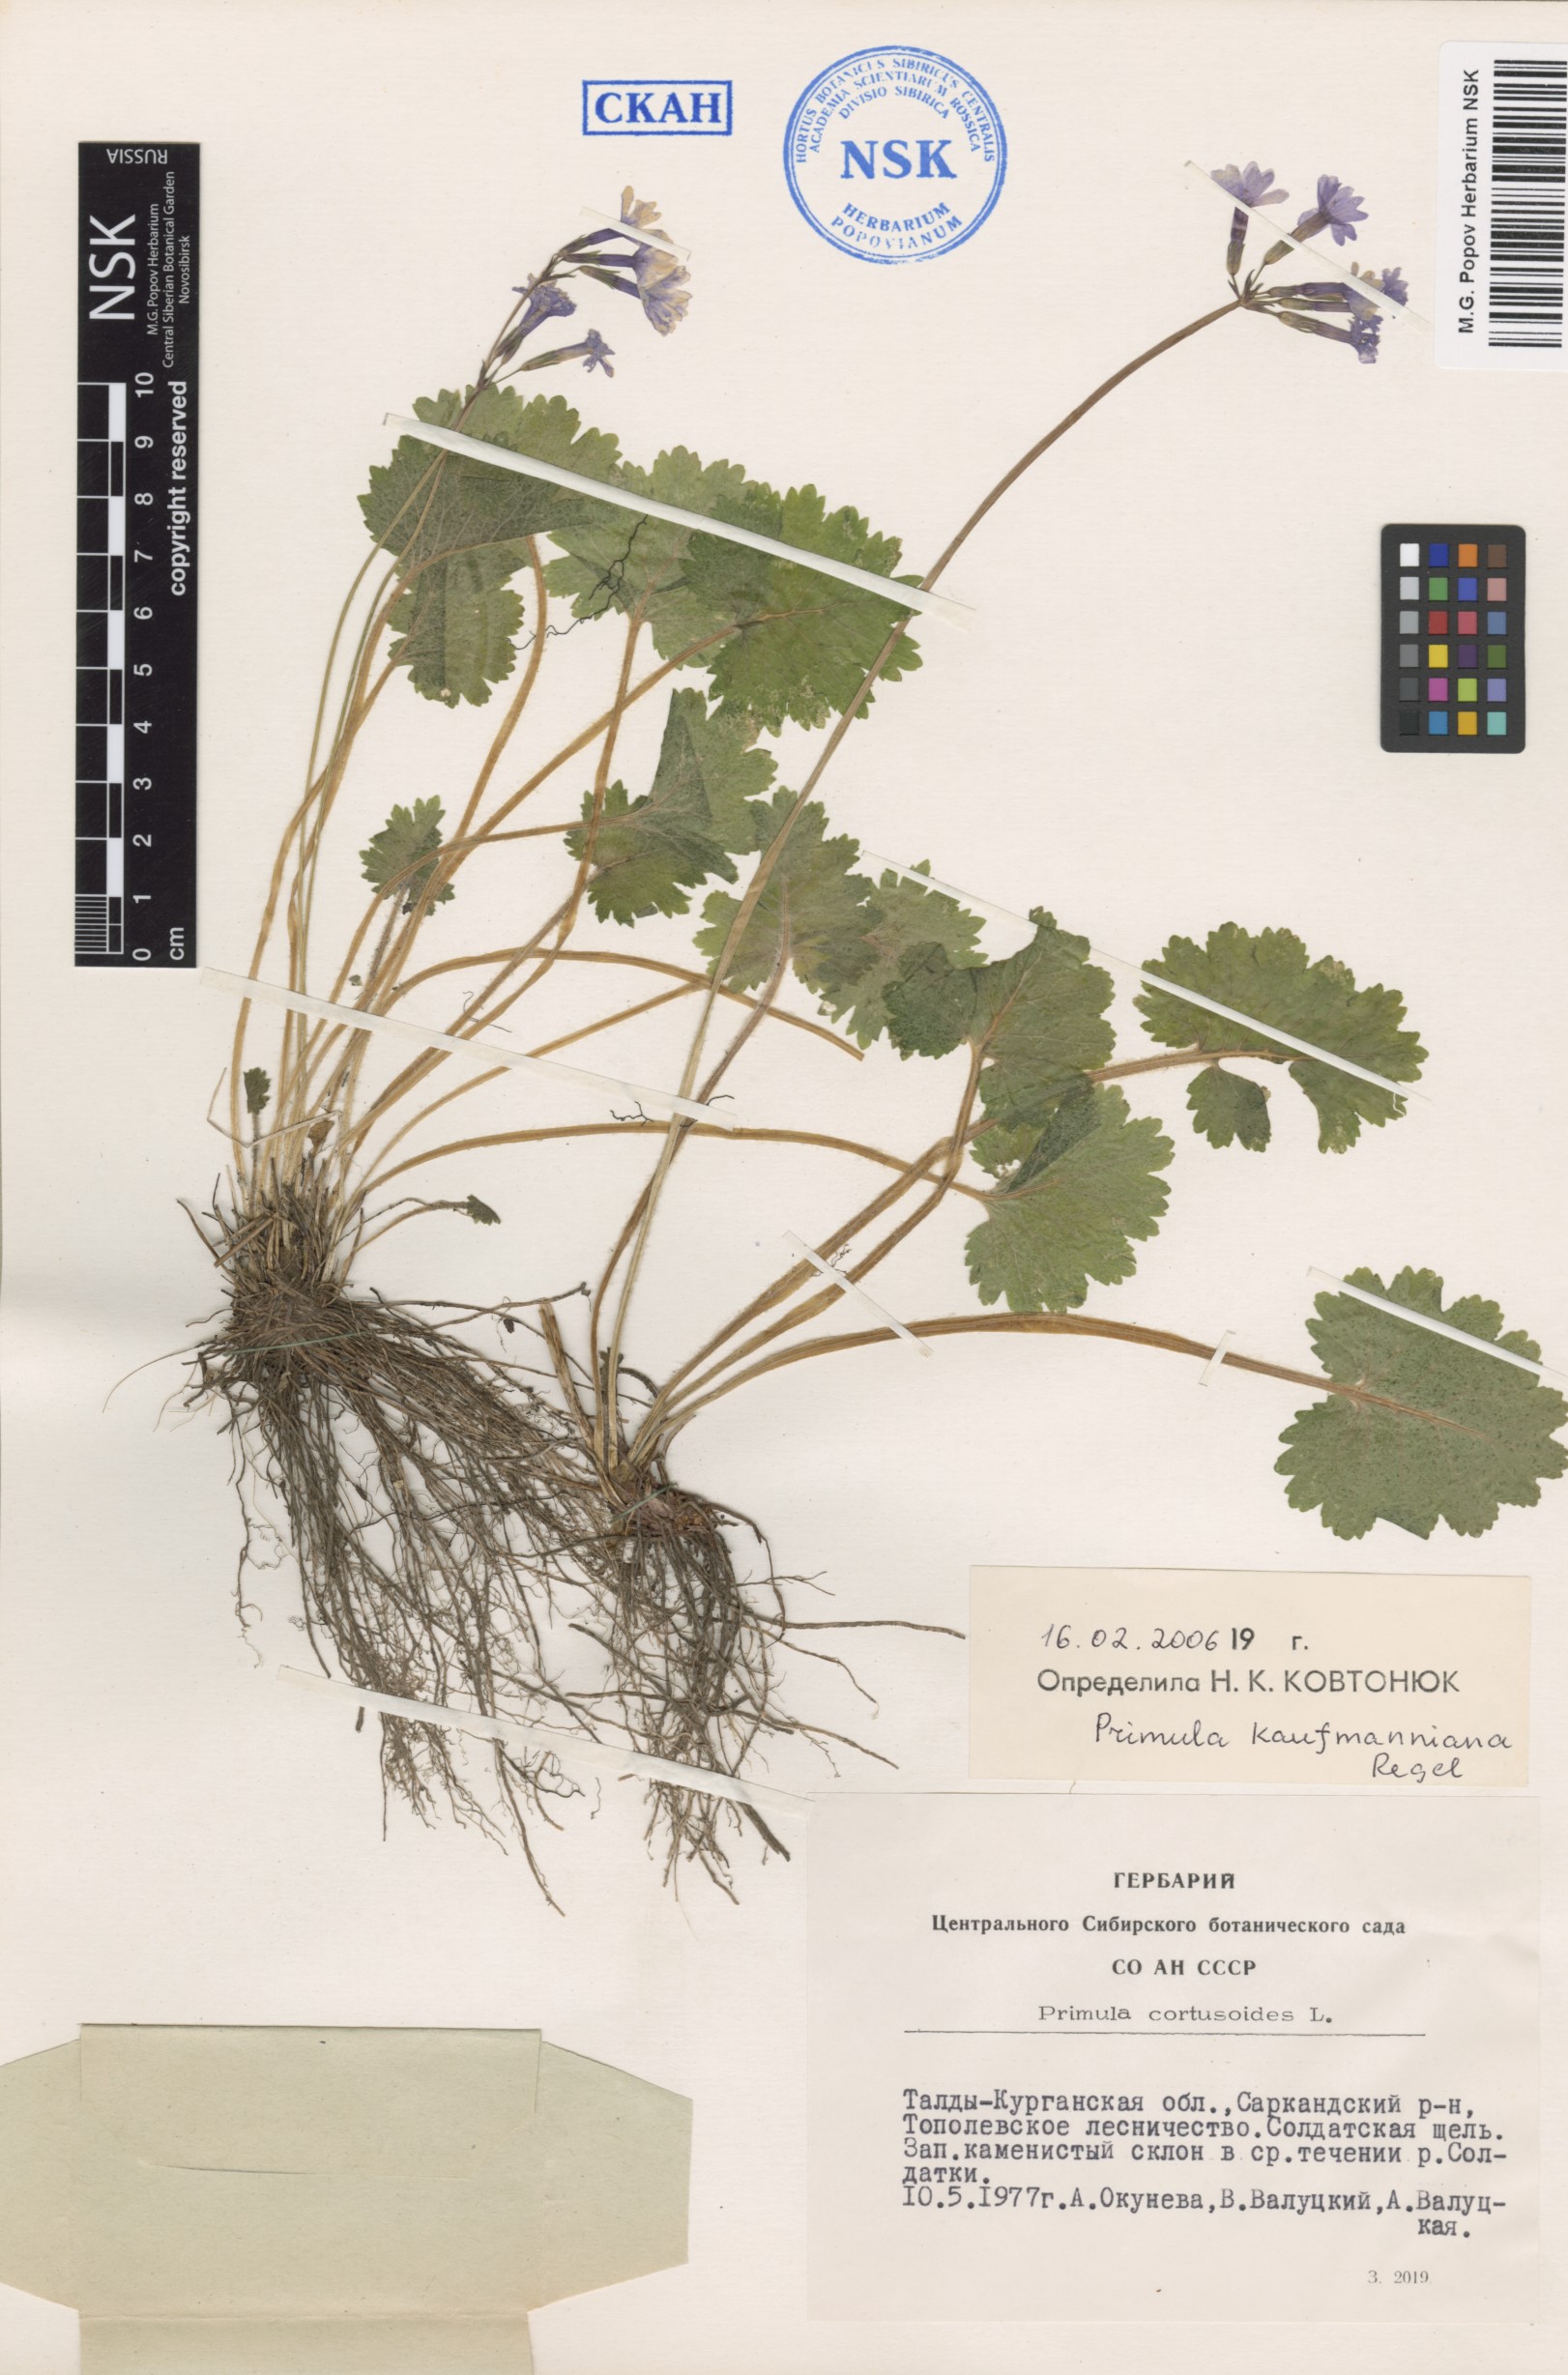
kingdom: Plantae
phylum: Tracheophyta
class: Magnoliopsida
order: Ericales
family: Primulaceae
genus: Primula
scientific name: Primula kaufmanniana
